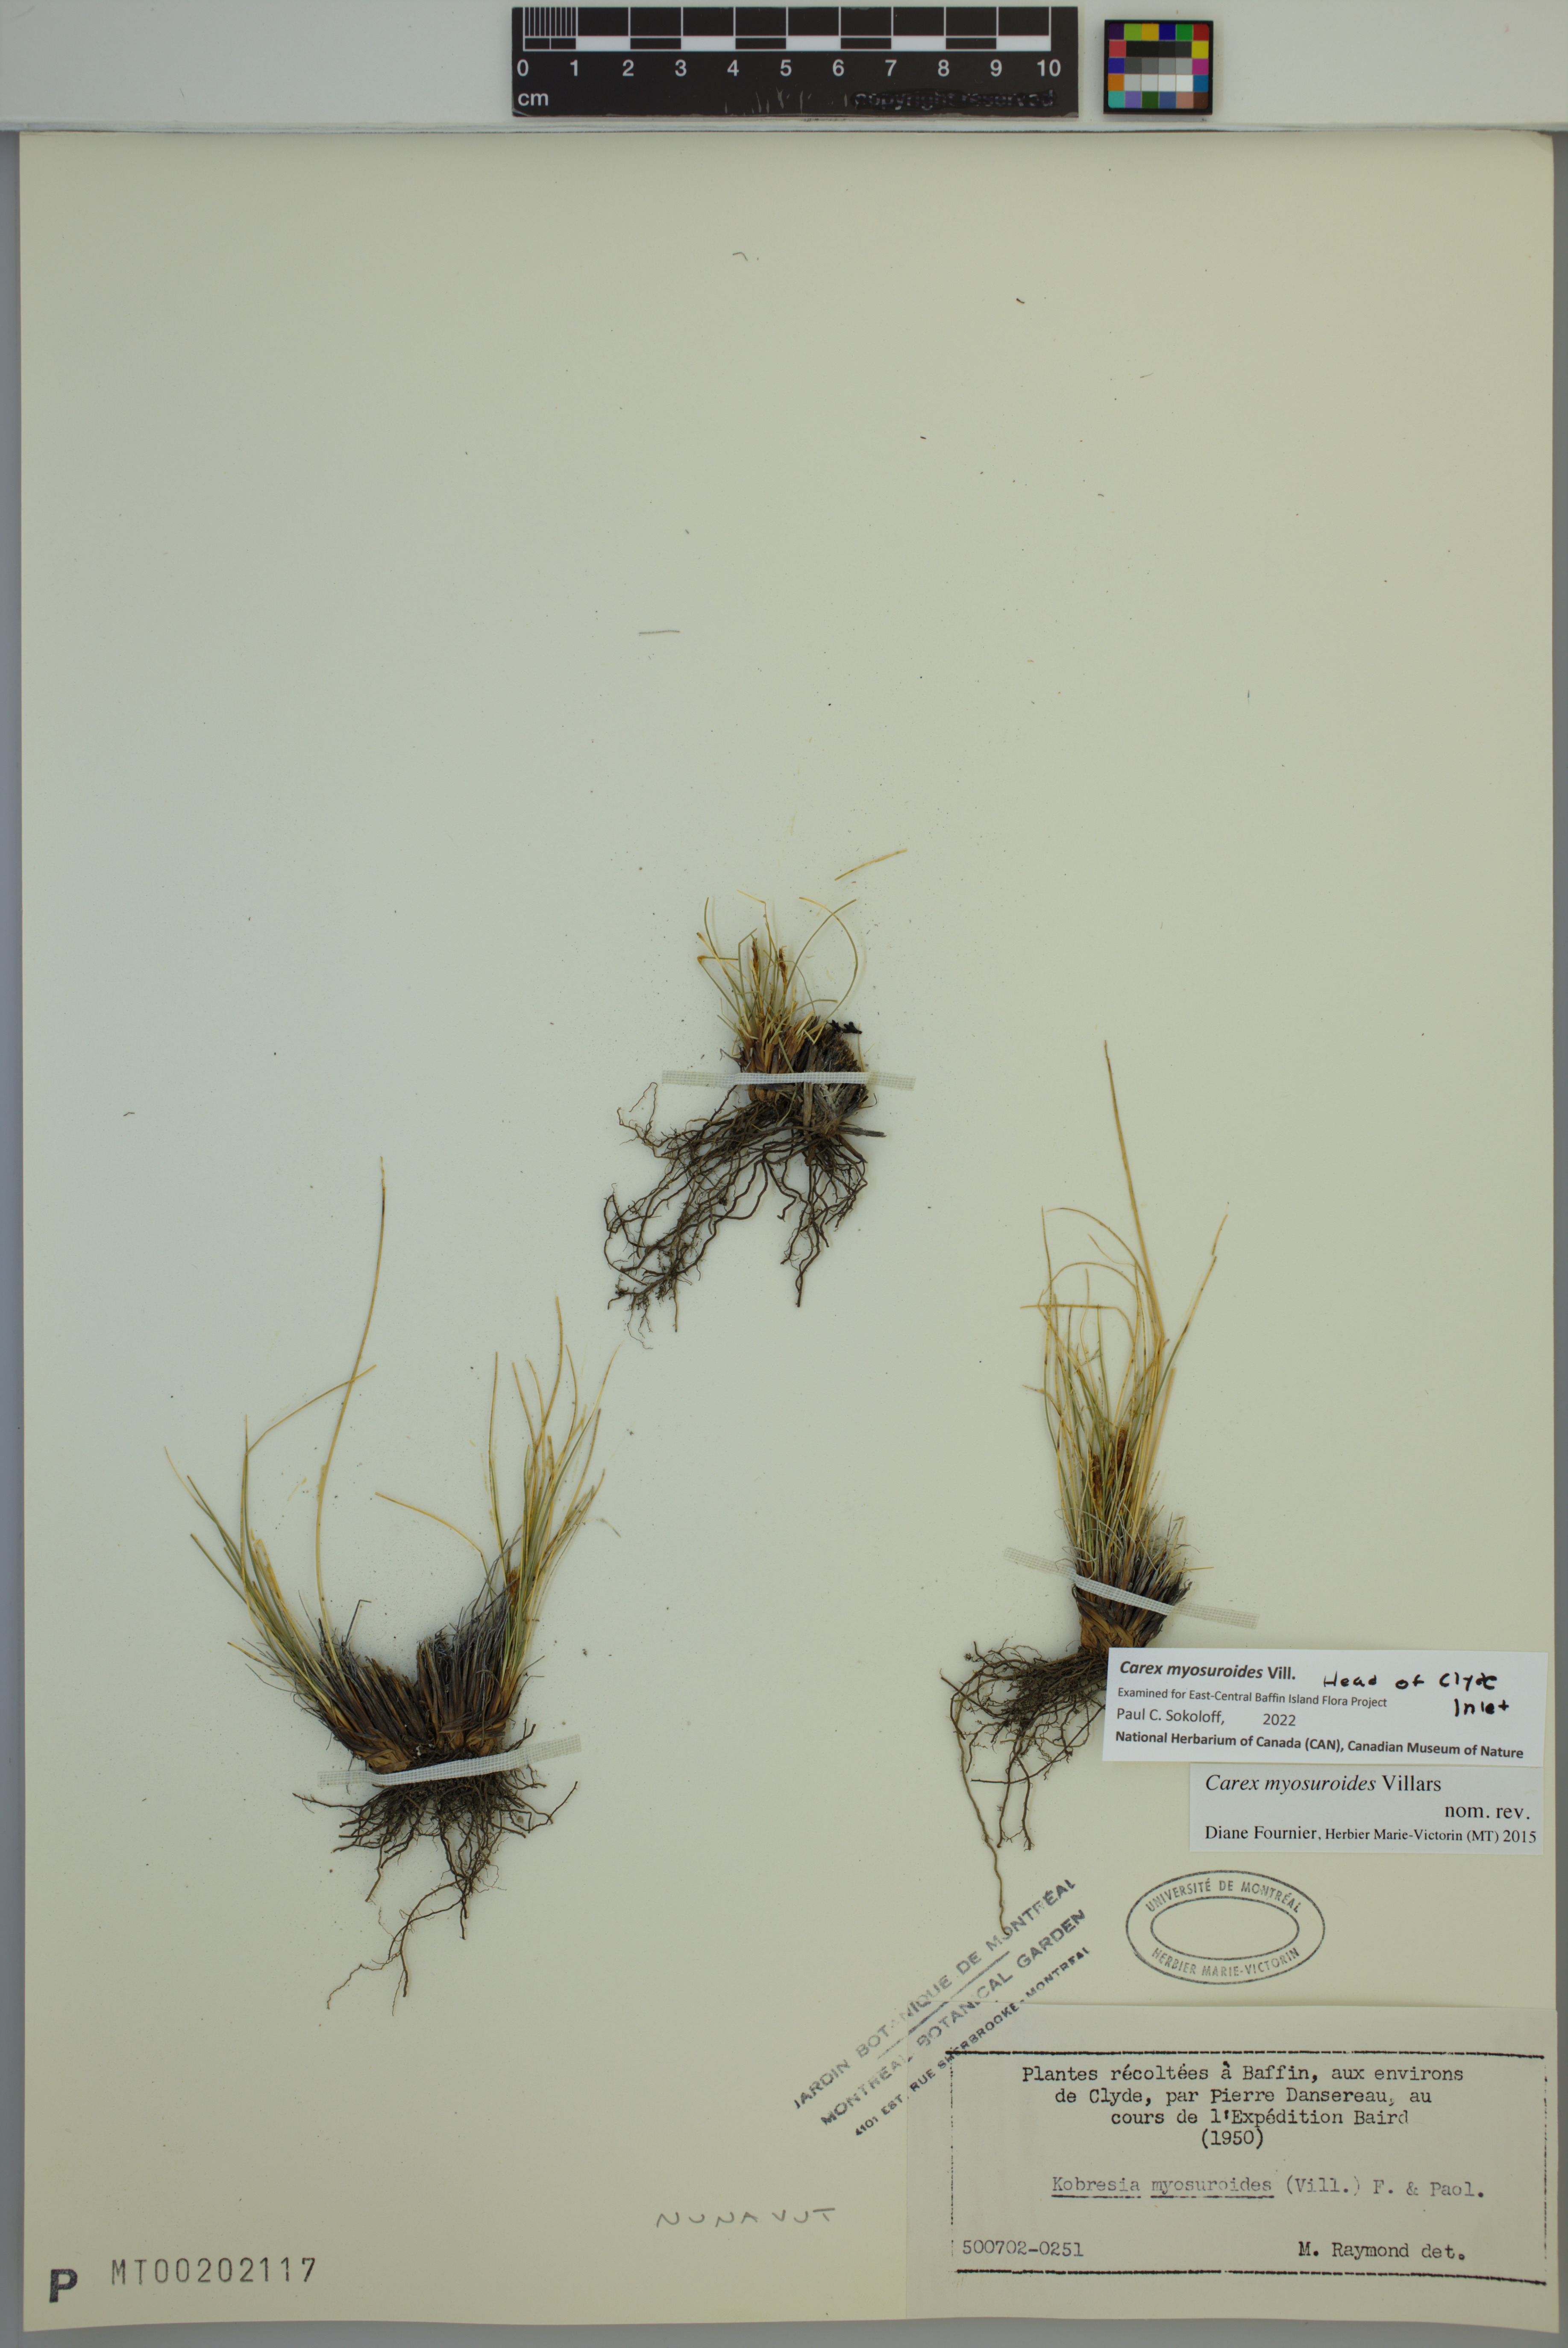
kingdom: Plantae
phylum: Tracheophyta
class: Liliopsida
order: Poales
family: Cyperaceae
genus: Carex
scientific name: Carex myosuroides
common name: Bellard's bog sedge
